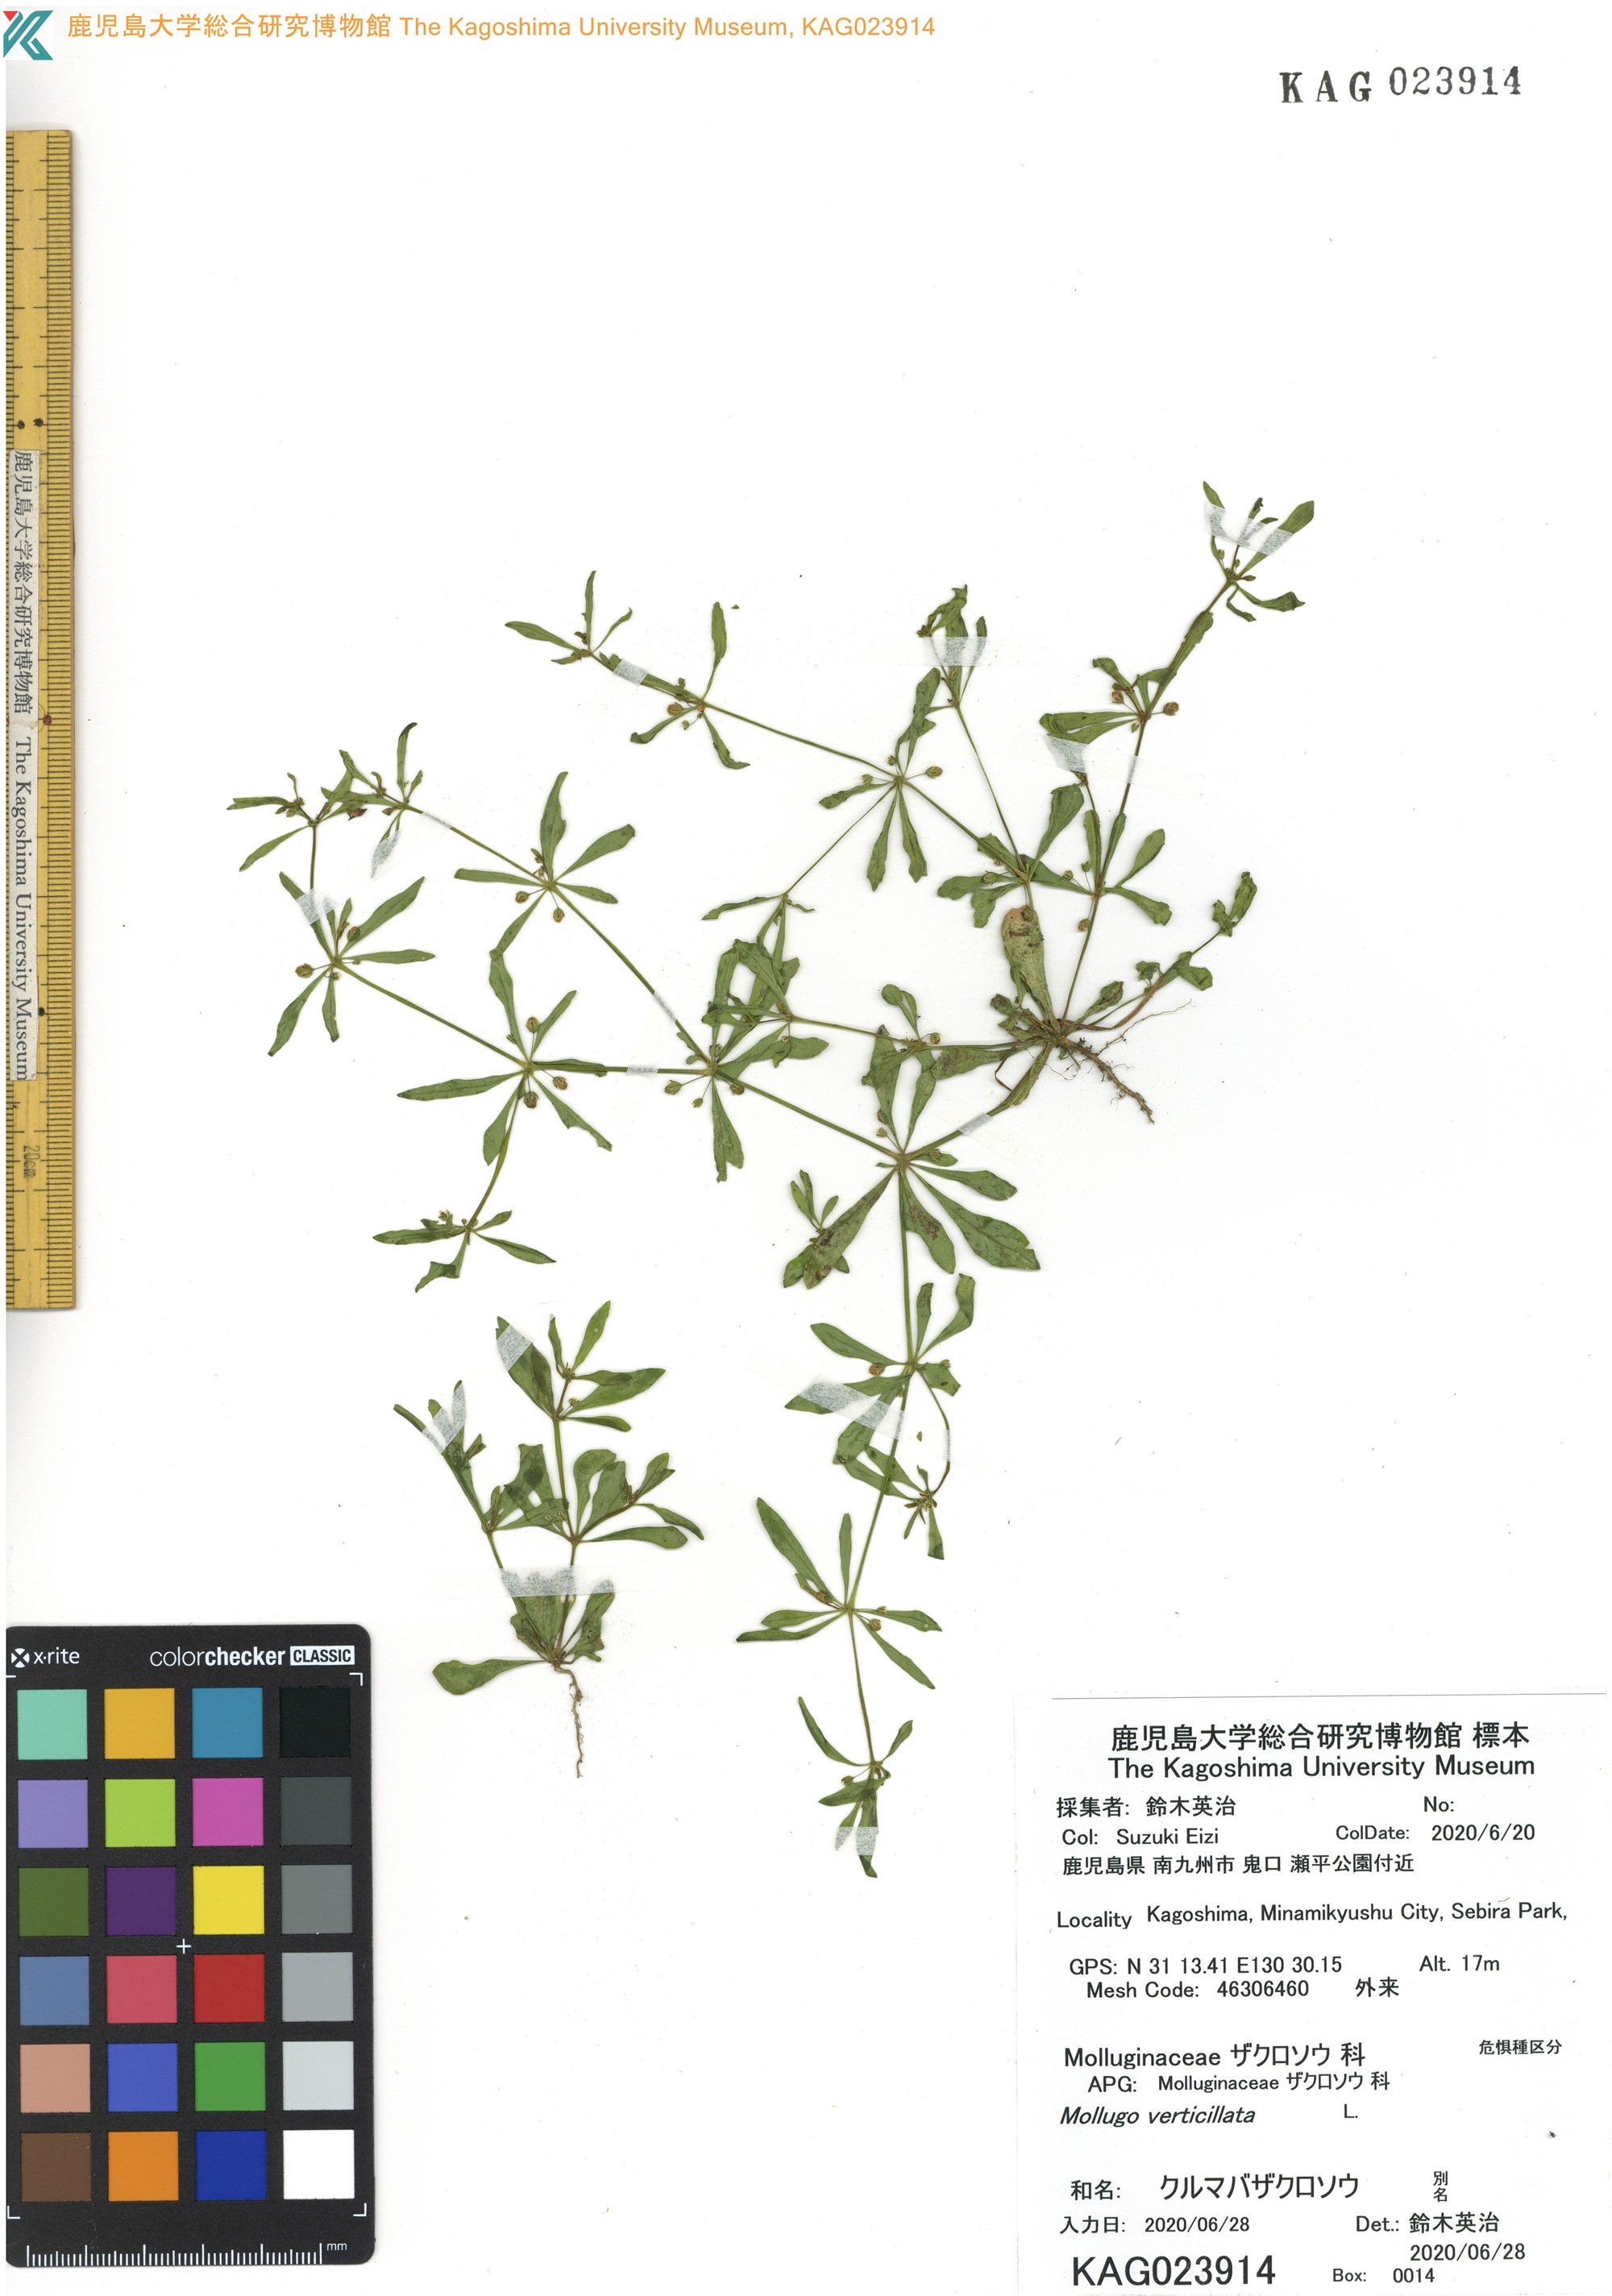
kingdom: Plantae
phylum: Tracheophyta
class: Magnoliopsida
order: Caryophyllales
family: Molluginaceae
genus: Mollugo
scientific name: Mollugo verticillata
